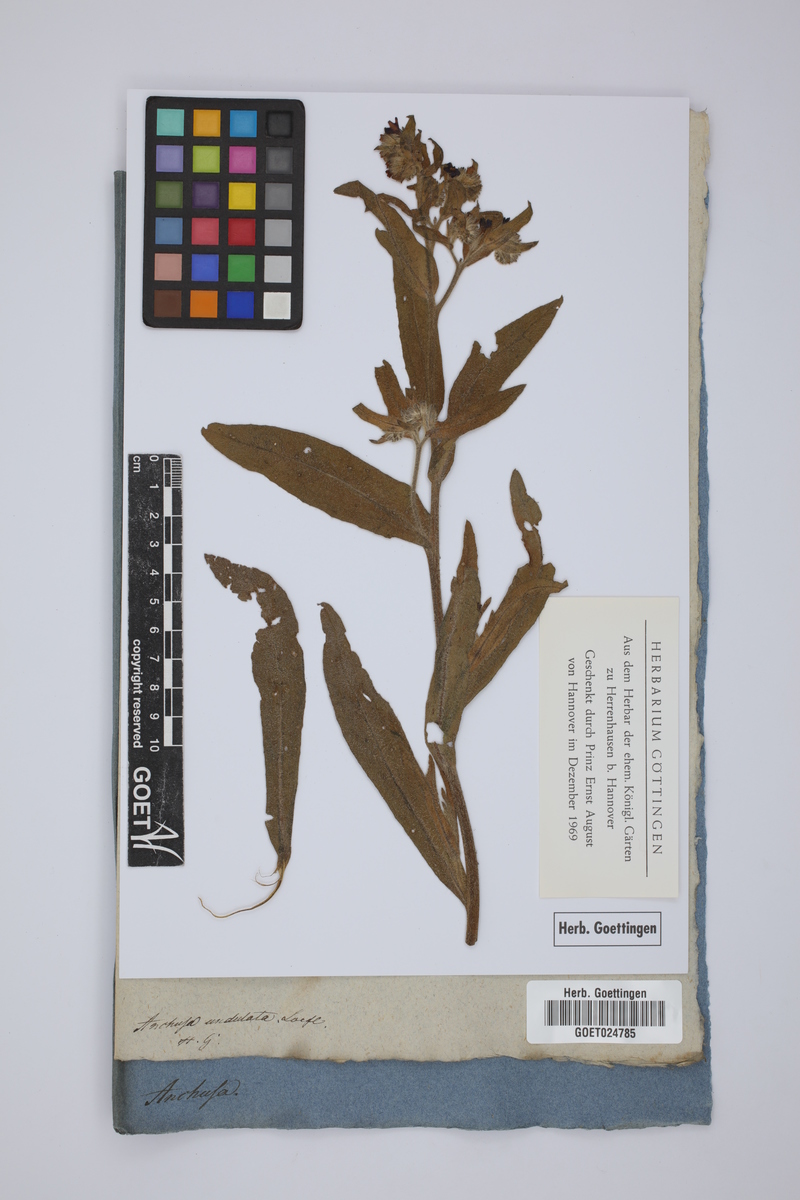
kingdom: Plantae
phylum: Tracheophyta
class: Magnoliopsida
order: Boraginales
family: Boraginaceae
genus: Anchusa
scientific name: Anchusa undulata
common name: Undulate alkanet
